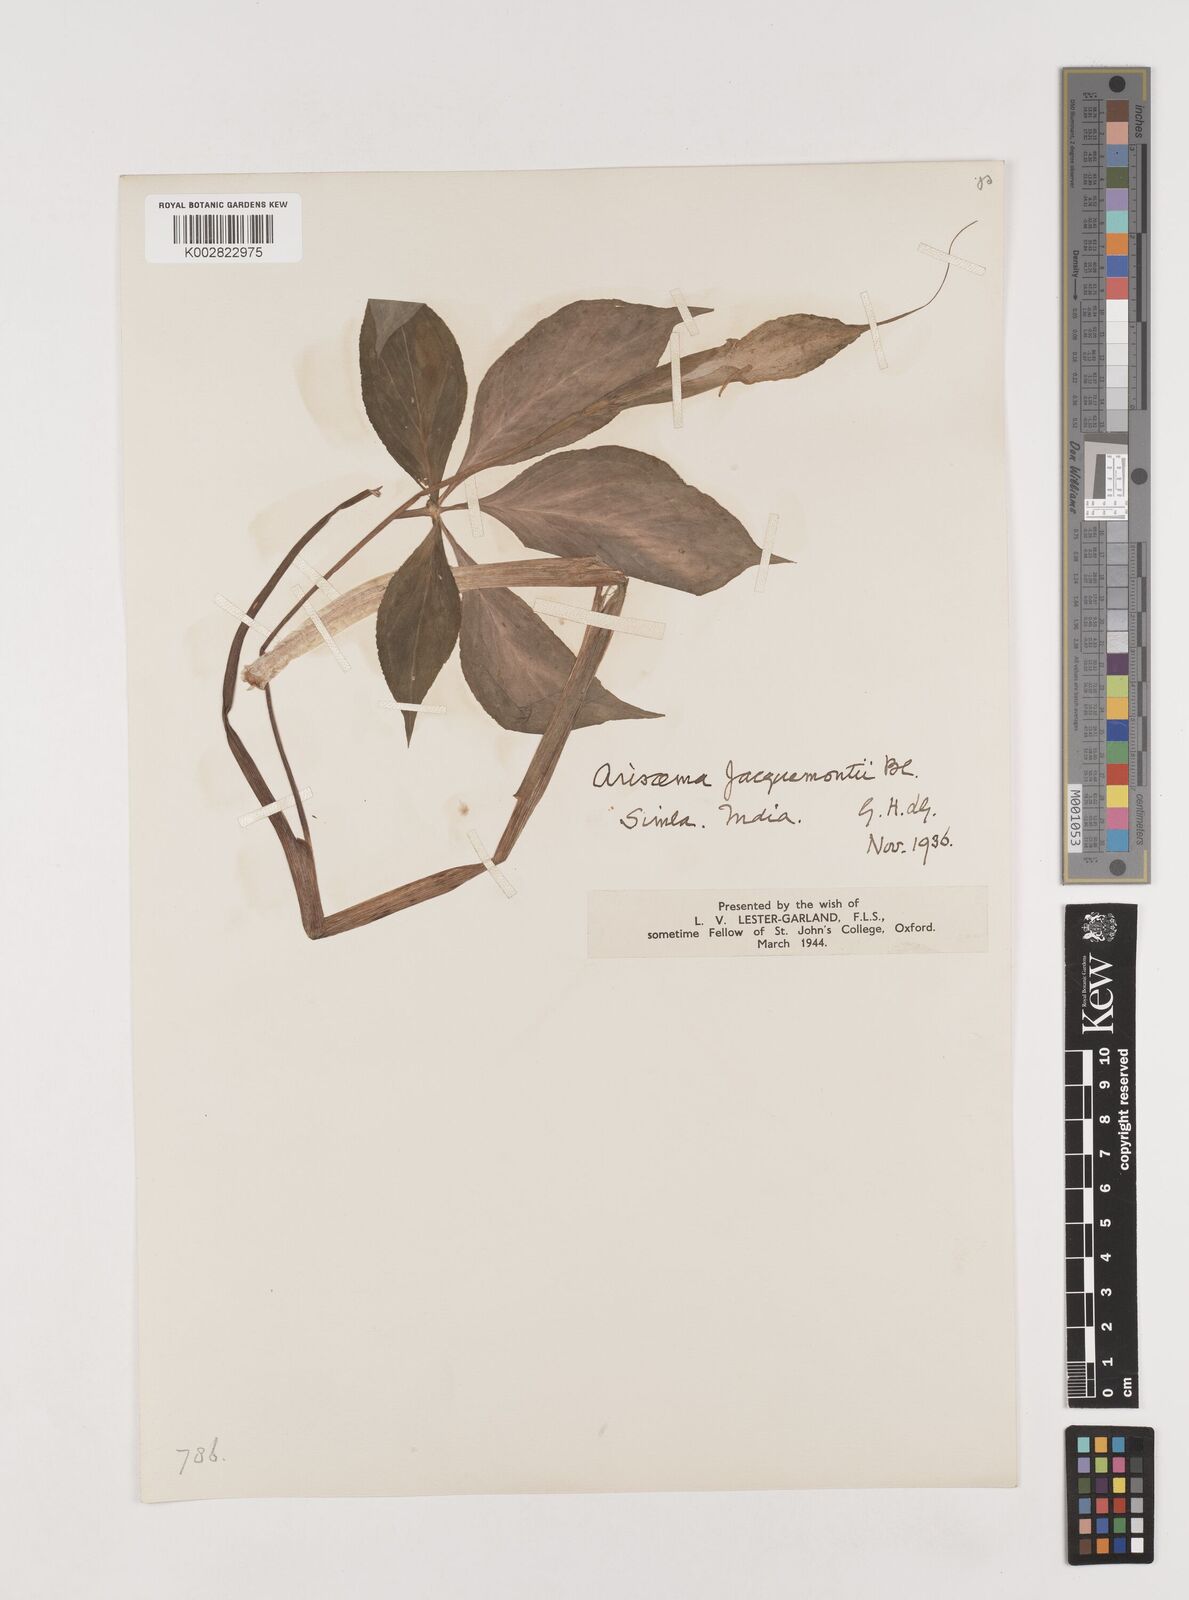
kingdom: Plantae
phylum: Tracheophyta
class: Liliopsida
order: Alismatales
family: Araceae
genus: Arisaema
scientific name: Arisaema jacquemontii
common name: Jacquemont's cobra-lily
